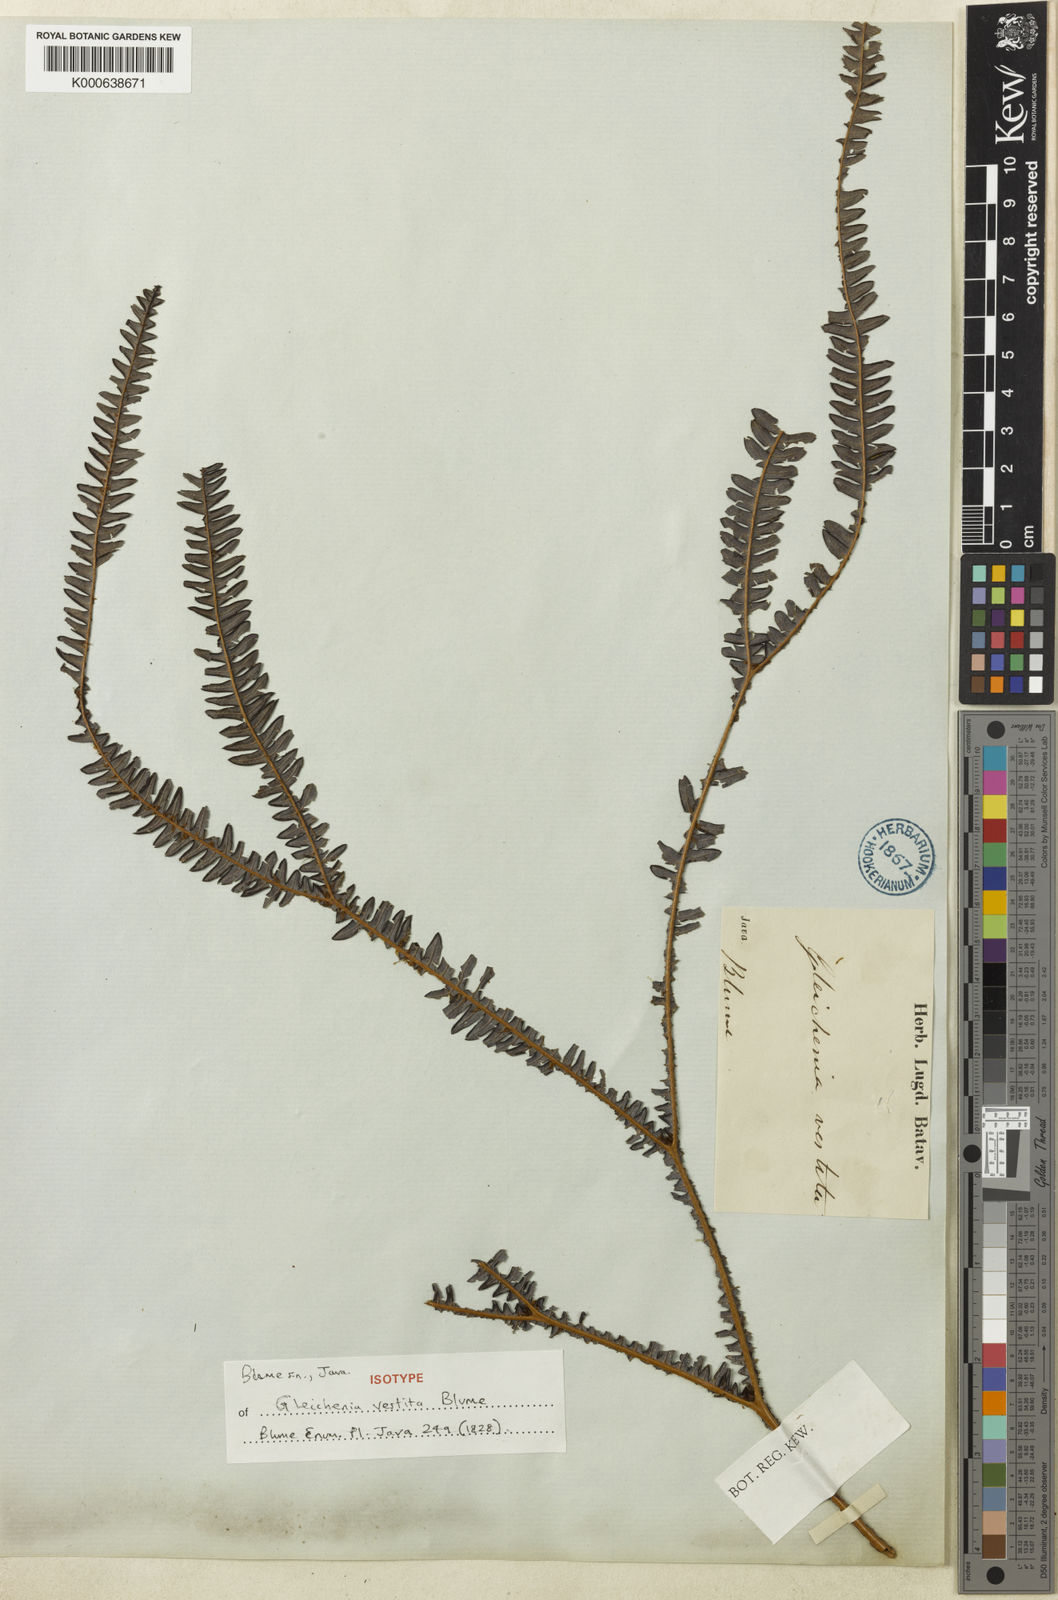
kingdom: Plantae
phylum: Tracheophyta
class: Polypodiopsida
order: Gleicheniales
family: Gleicheniaceae
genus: Sticherus
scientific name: Sticherus vestitus
